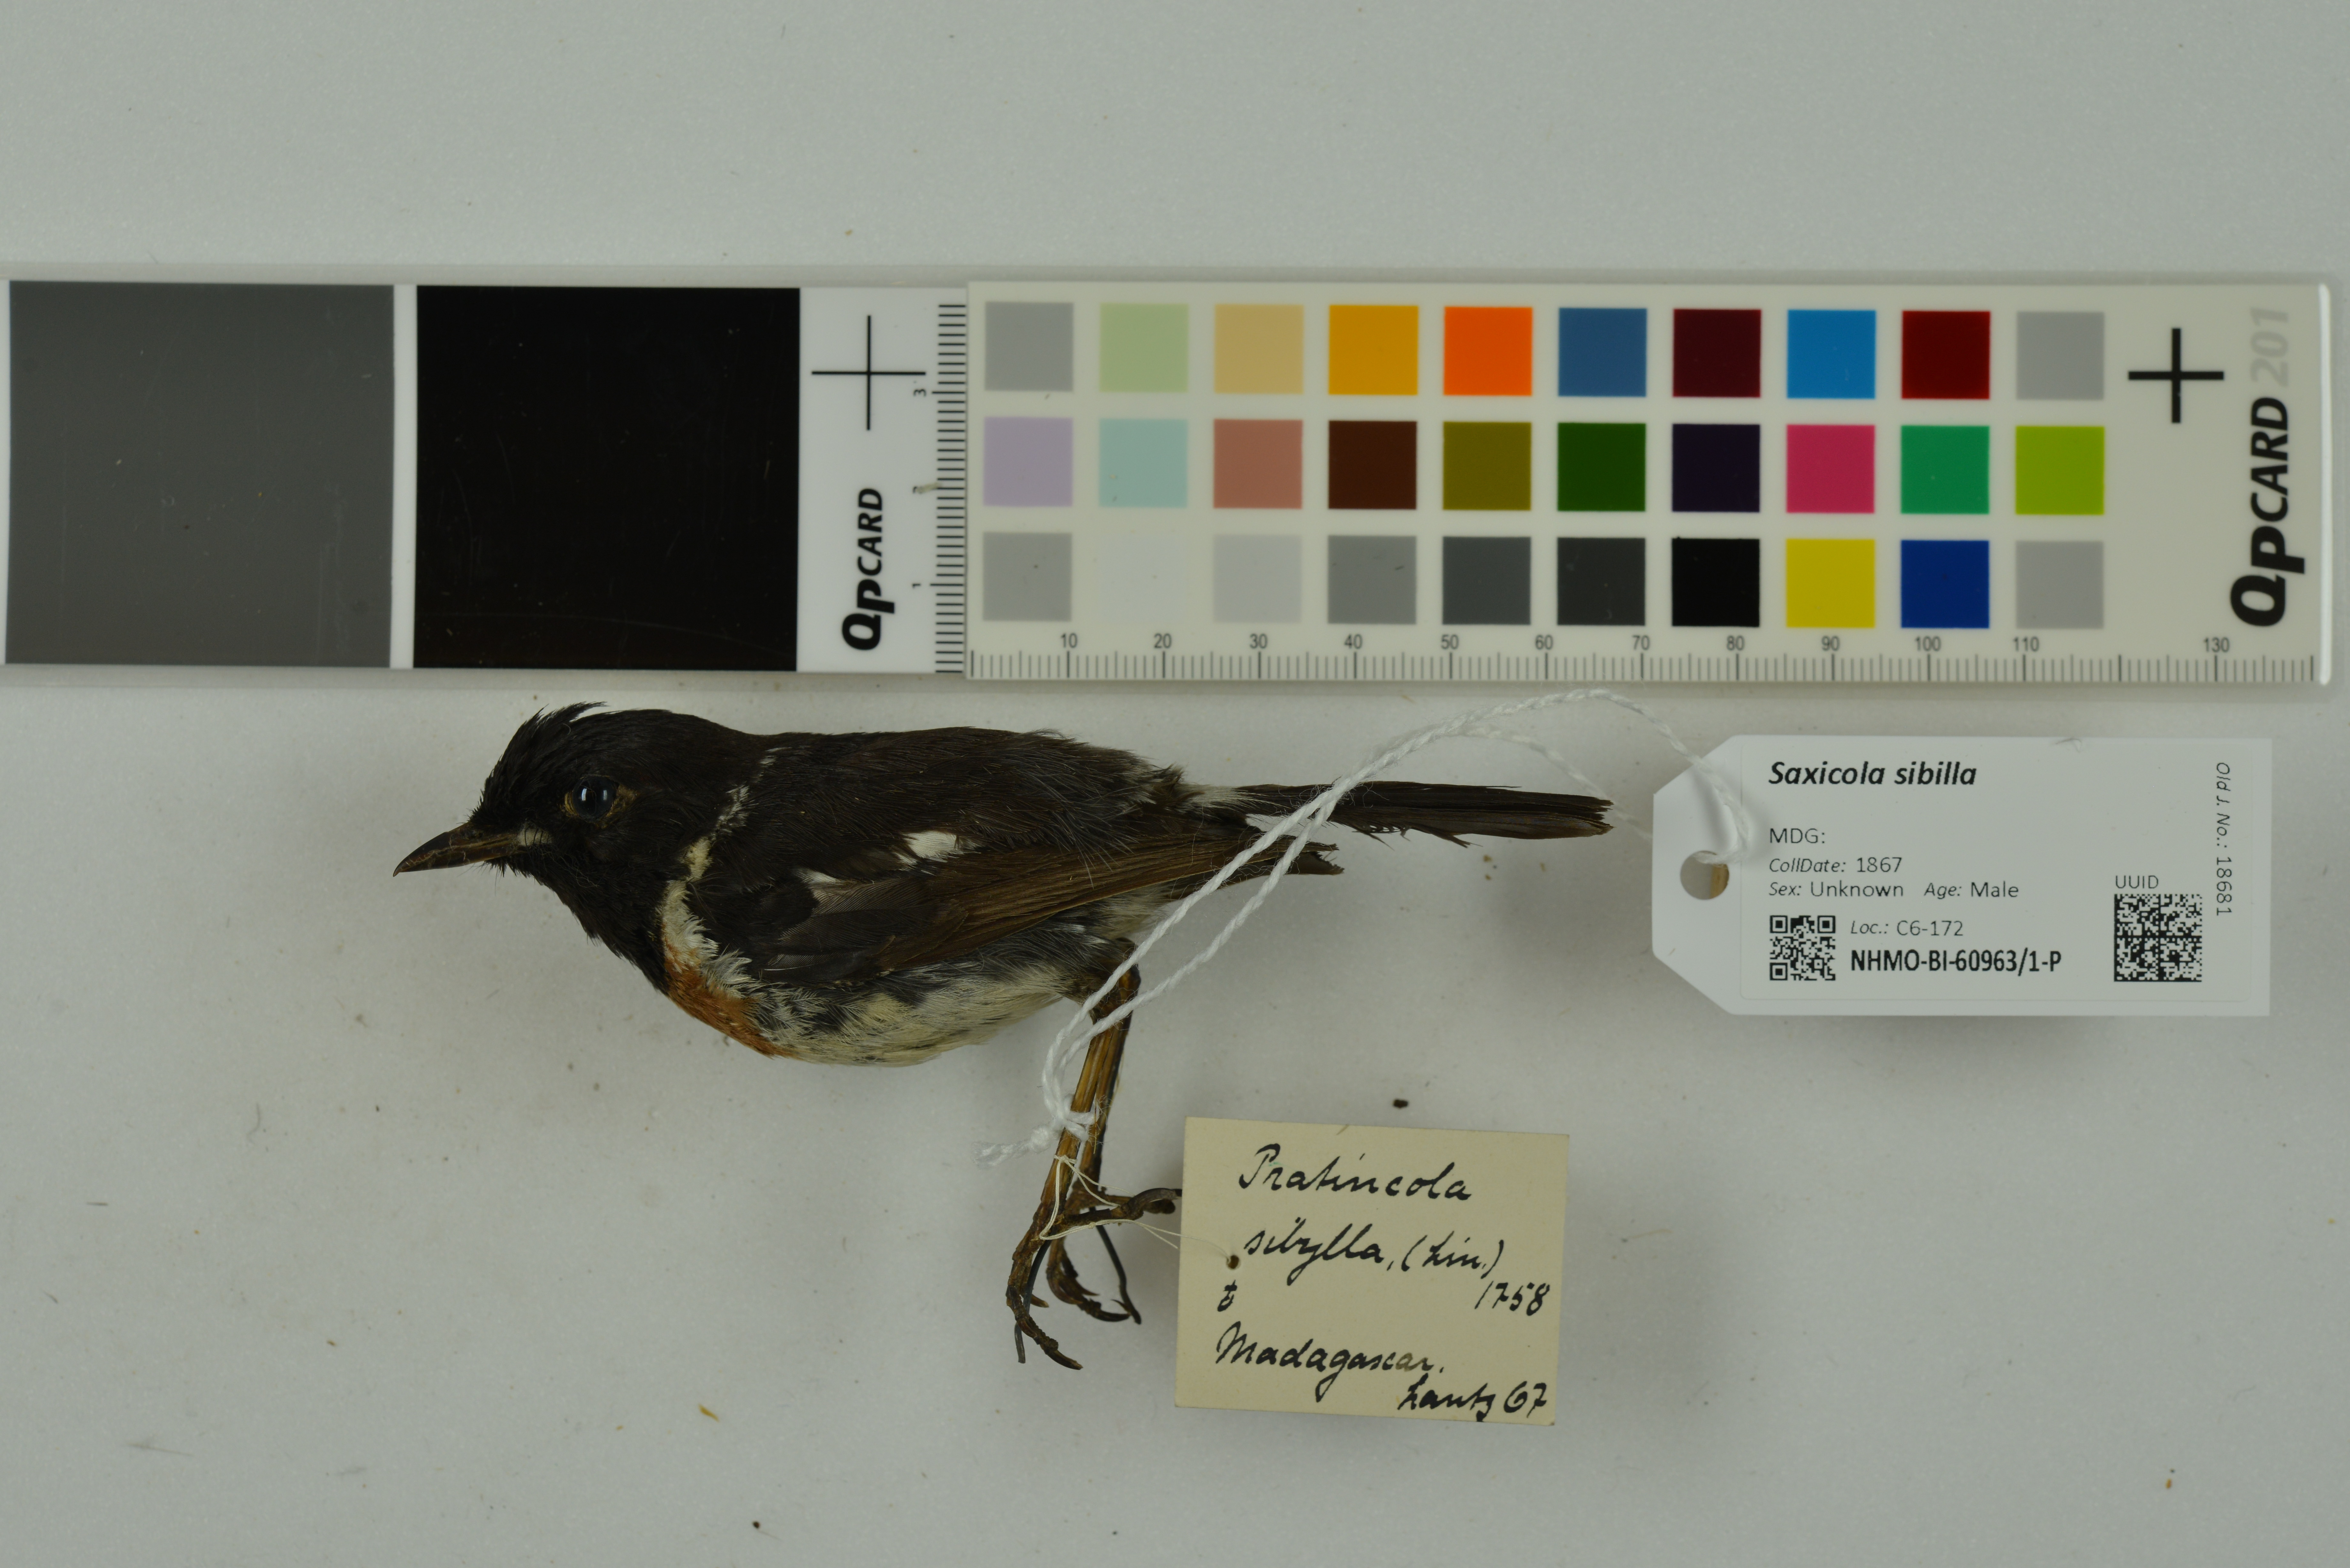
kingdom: Animalia
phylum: Chordata
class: Aves
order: Passeriformes
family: Muscicapidae
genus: Saxicola
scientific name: Saxicola sibilla
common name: Madagascan stonechat
